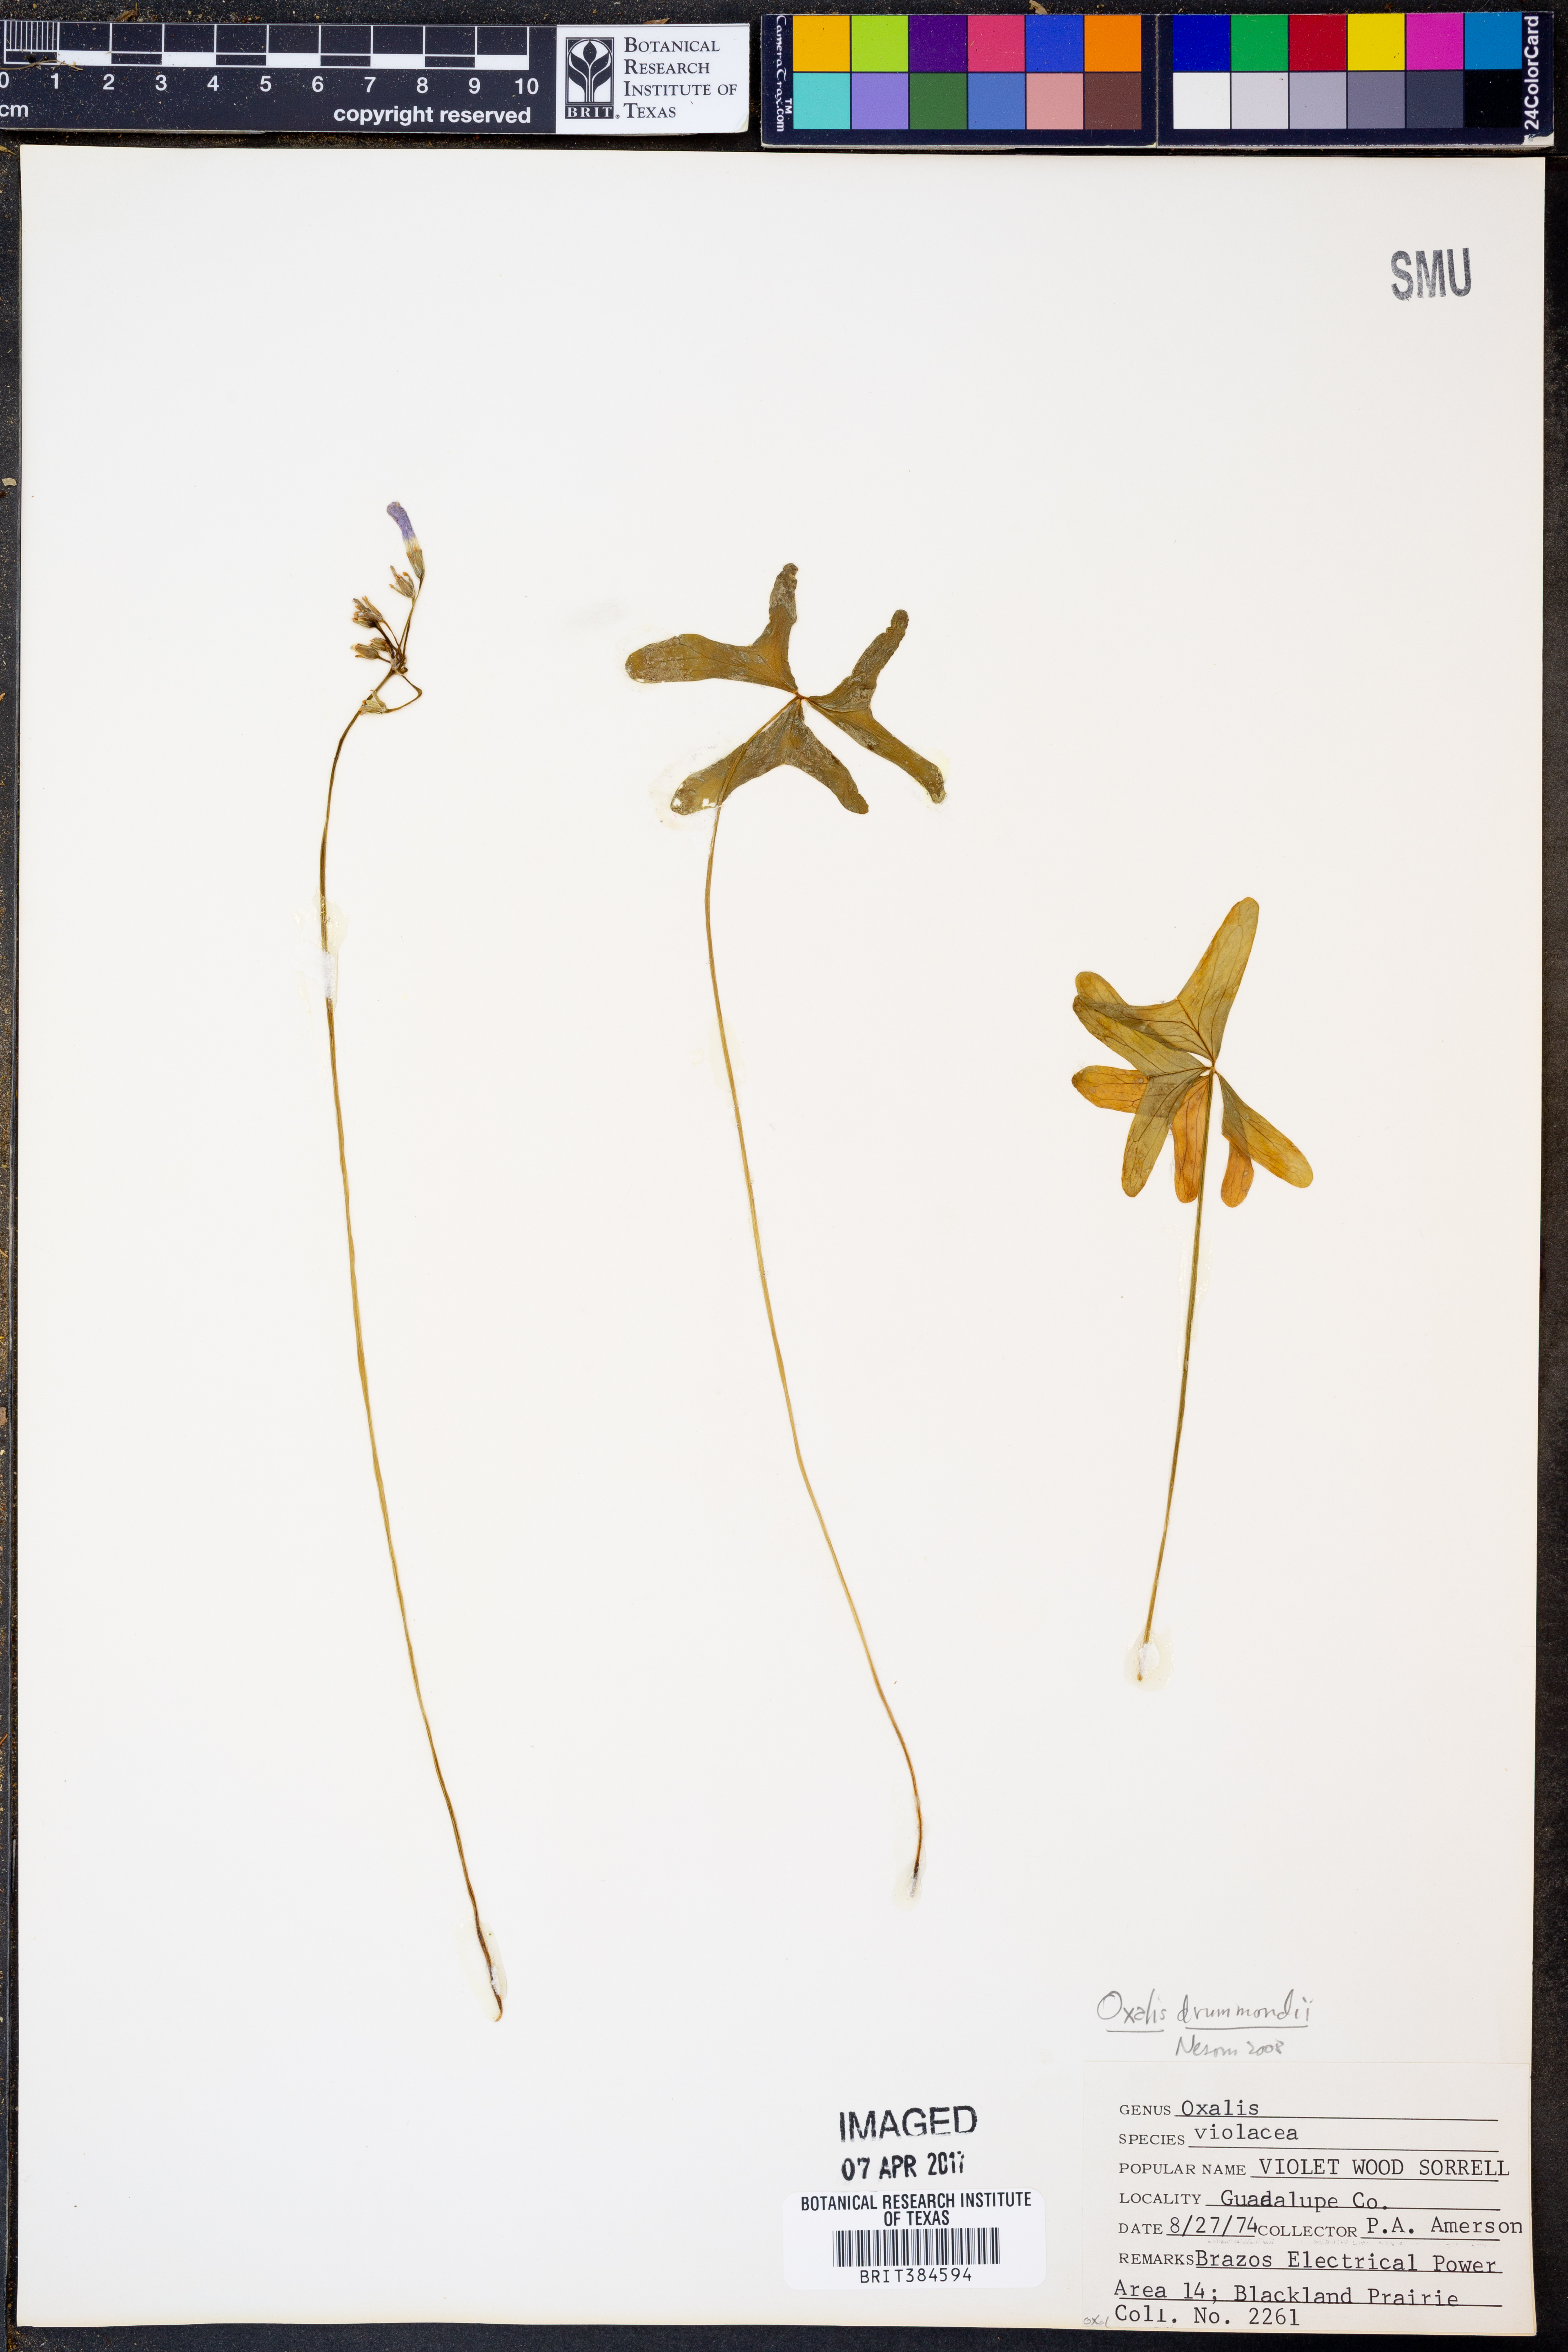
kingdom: Plantae
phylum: Tracheophyta
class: Magnoliopsida
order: Oxalidales
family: Oxalidaceae
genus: Oxalis
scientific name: Oxalis drummondii
